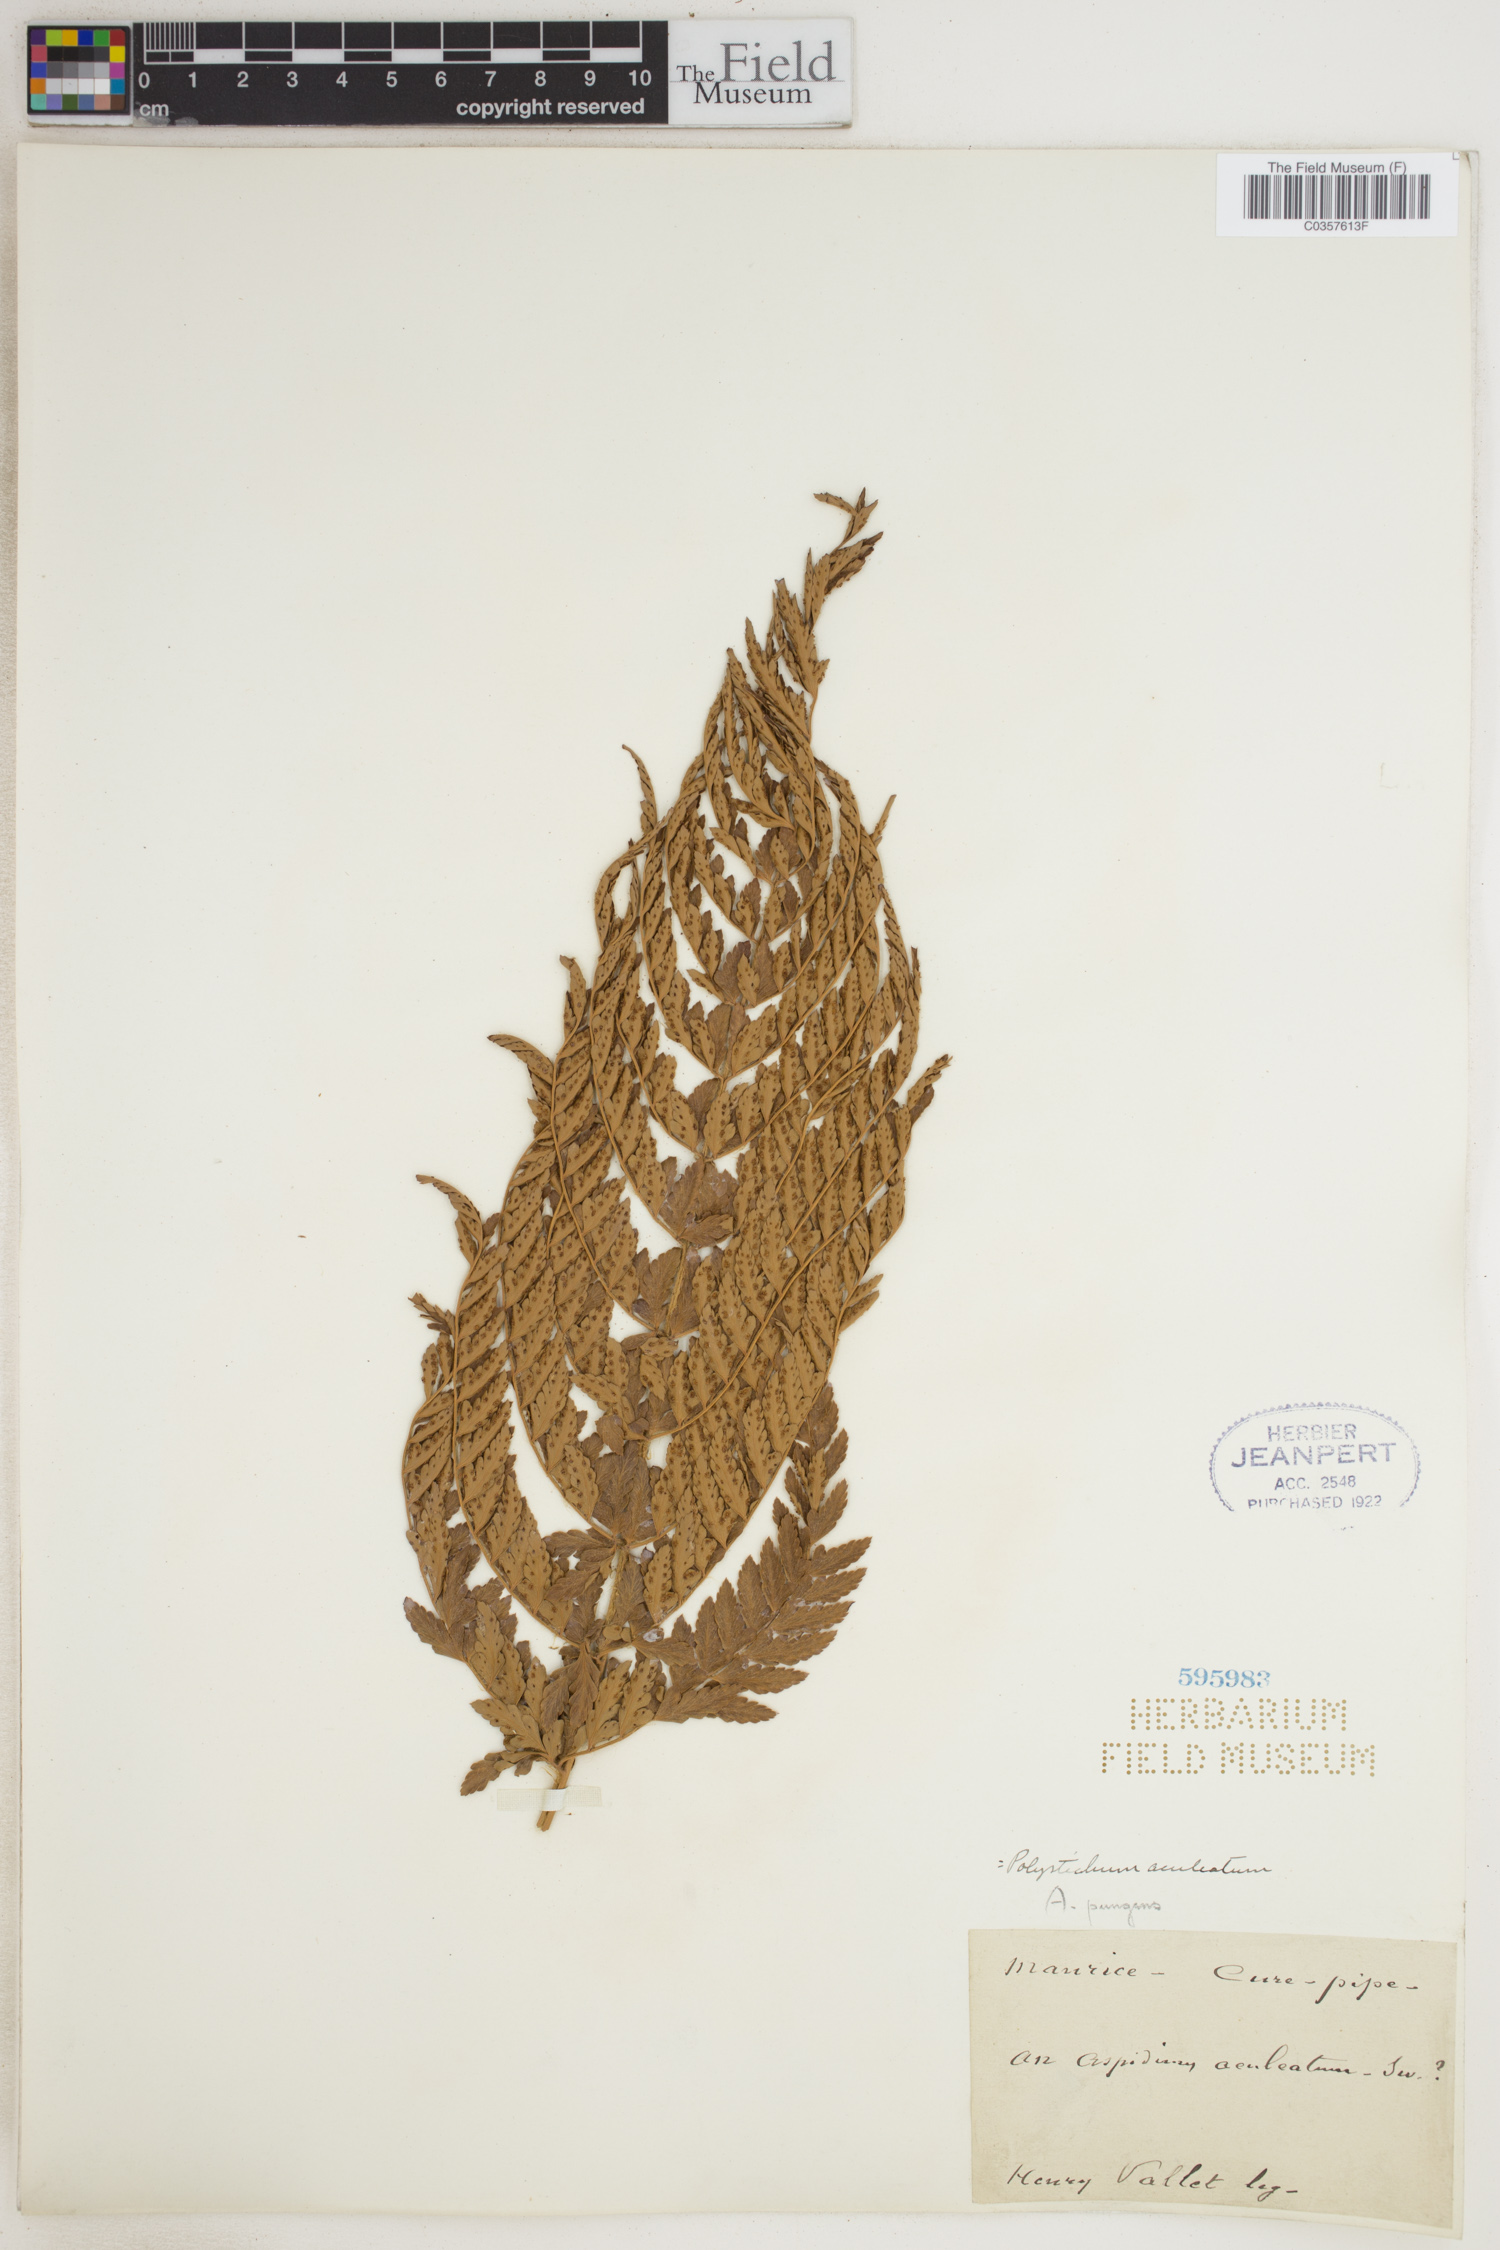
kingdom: Plantae
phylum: Tracheophyta
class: Polypodiopsida
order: Polypodiales
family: Dryopteridaceae
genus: Polystichum
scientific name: Polystichum aculeatum
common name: Hard shield-fern
